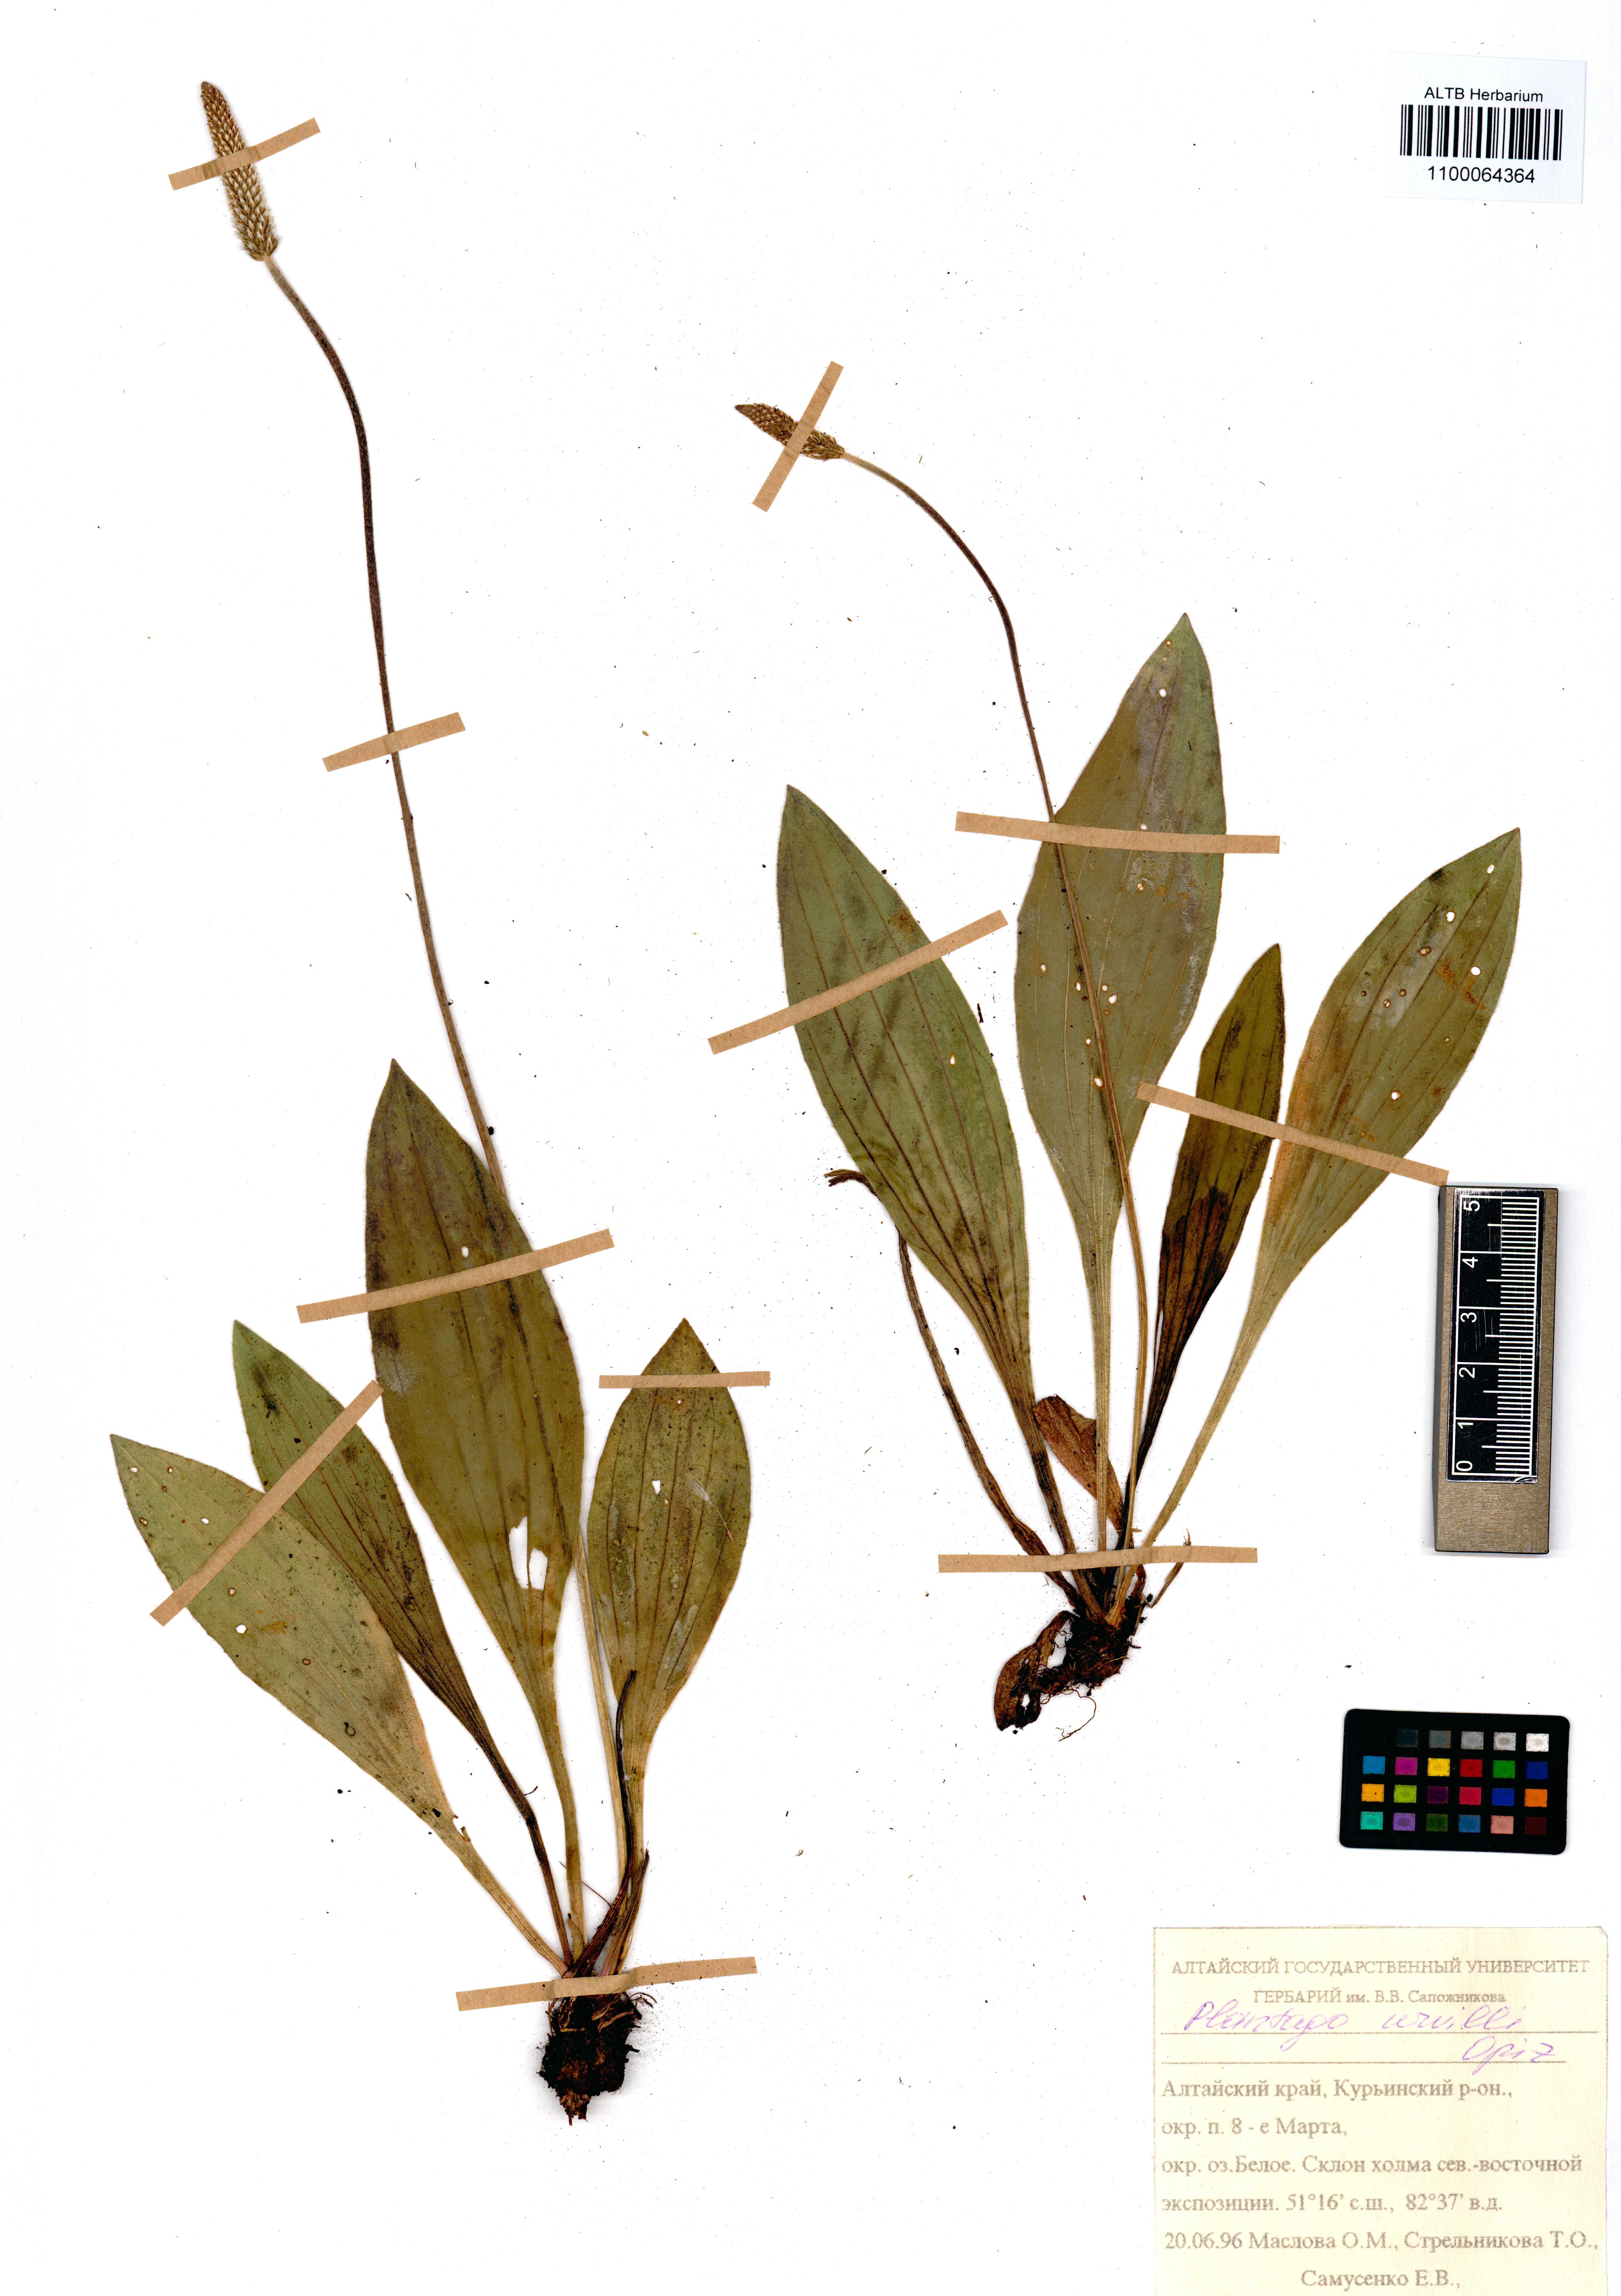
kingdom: Plantae
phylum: Tracheophyta
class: Magnoliopsida
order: Lamiales
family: Plantaginaceae
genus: Plantago
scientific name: Plantago urvillei
